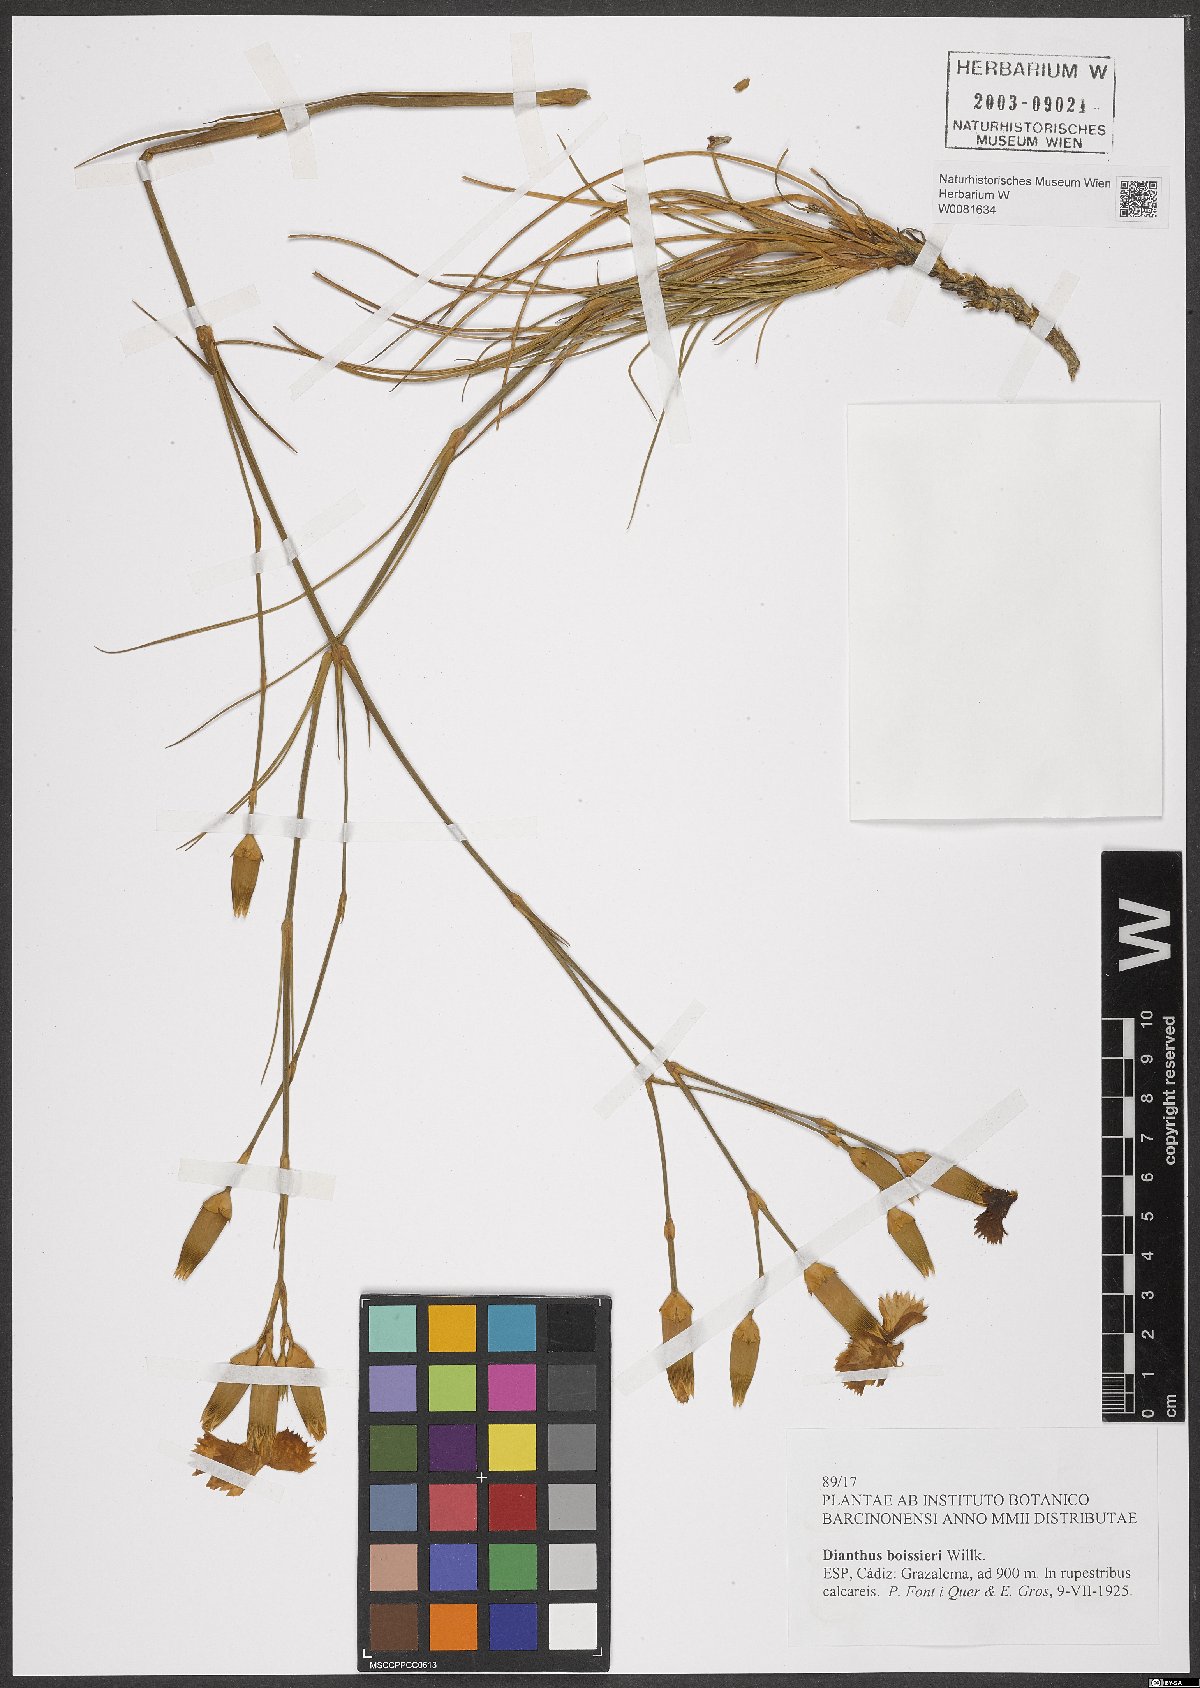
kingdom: Plantae
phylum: Tracheophyta
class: Magnoliopsida
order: Caryophyllales
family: Caryophyllaceae
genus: Dianthus
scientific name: Dianthus sylvestris
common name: Wood pink
